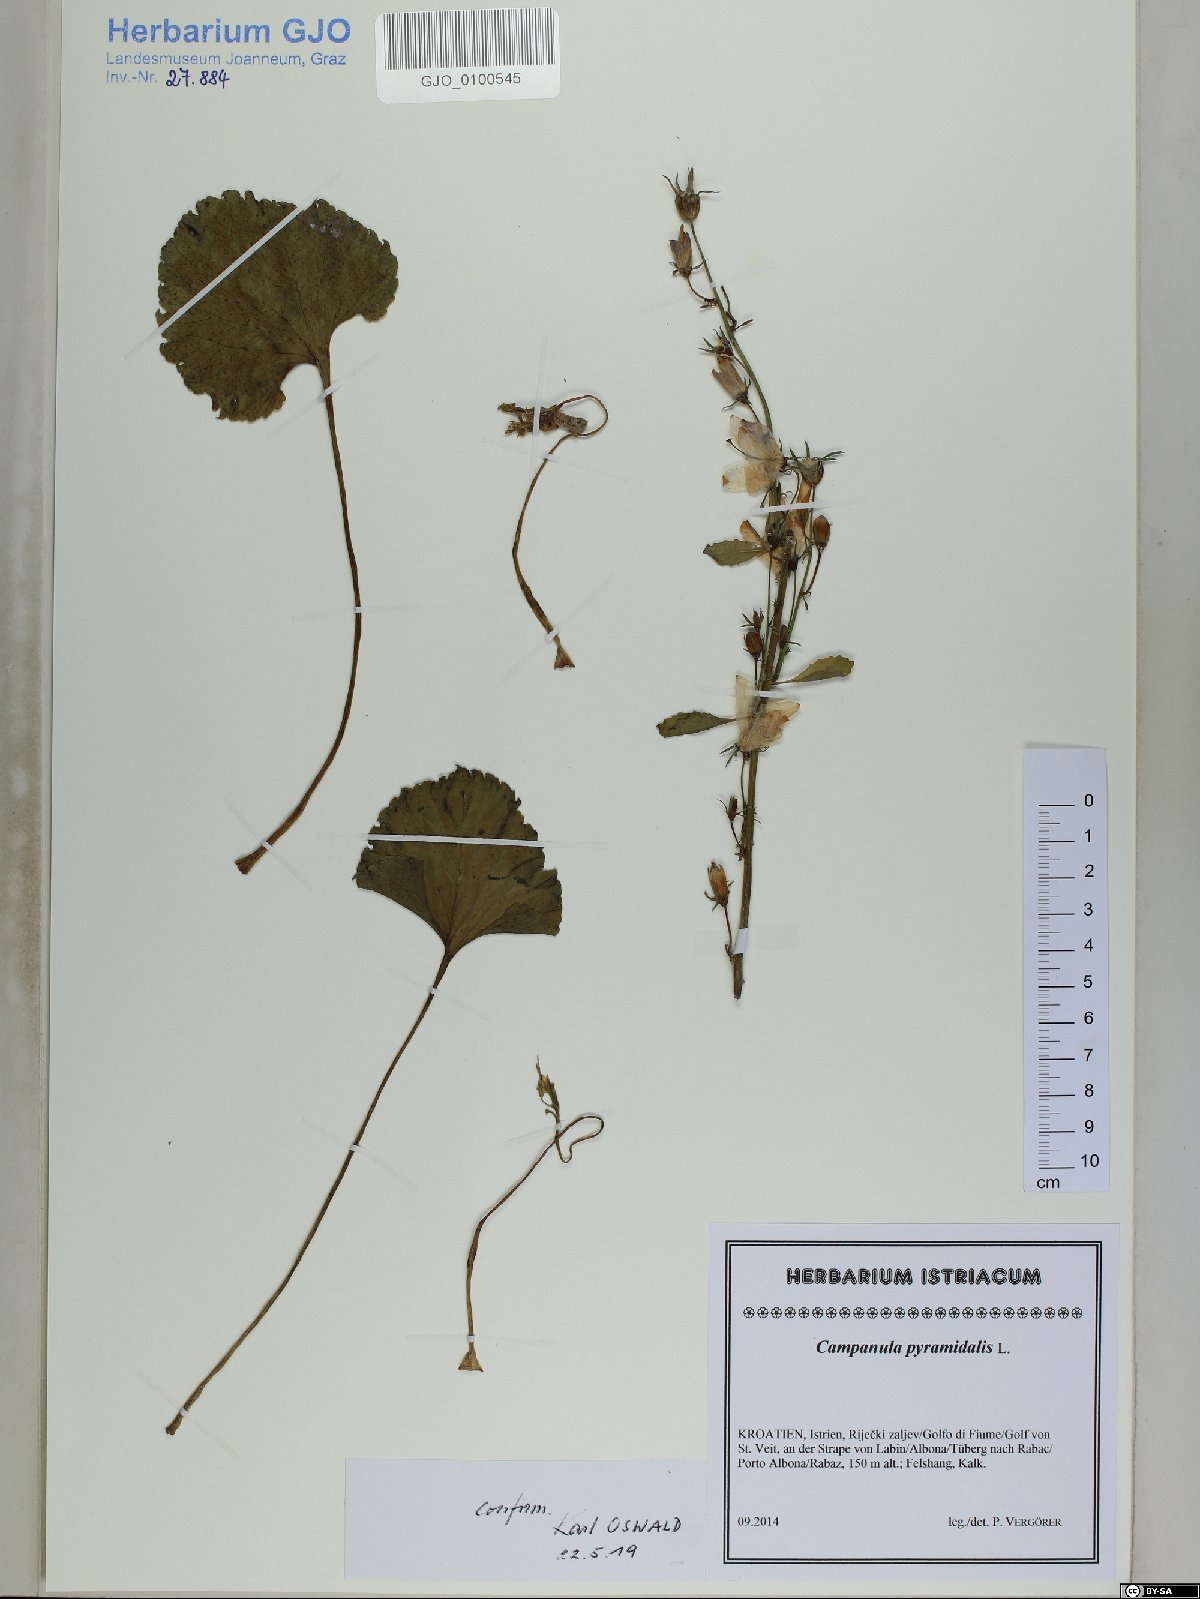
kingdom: Plantae
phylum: Tracheophyta
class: Magnoliopsida
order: Asterales
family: Campanulaceae
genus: Campanula
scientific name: Campanula pyramidalis
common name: Chimney bellflower
